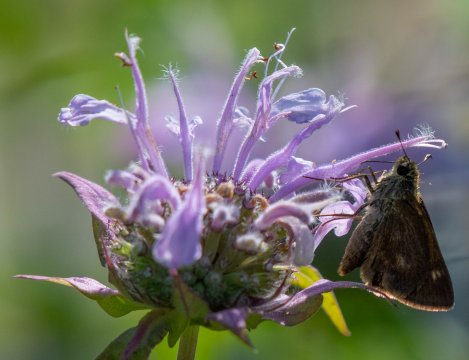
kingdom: Animalia
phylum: Arthropoda
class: Insecta
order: Lepidoptera
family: Hesperiidae
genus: Polites
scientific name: Polites egeremet
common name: Northern Broken-Dash
